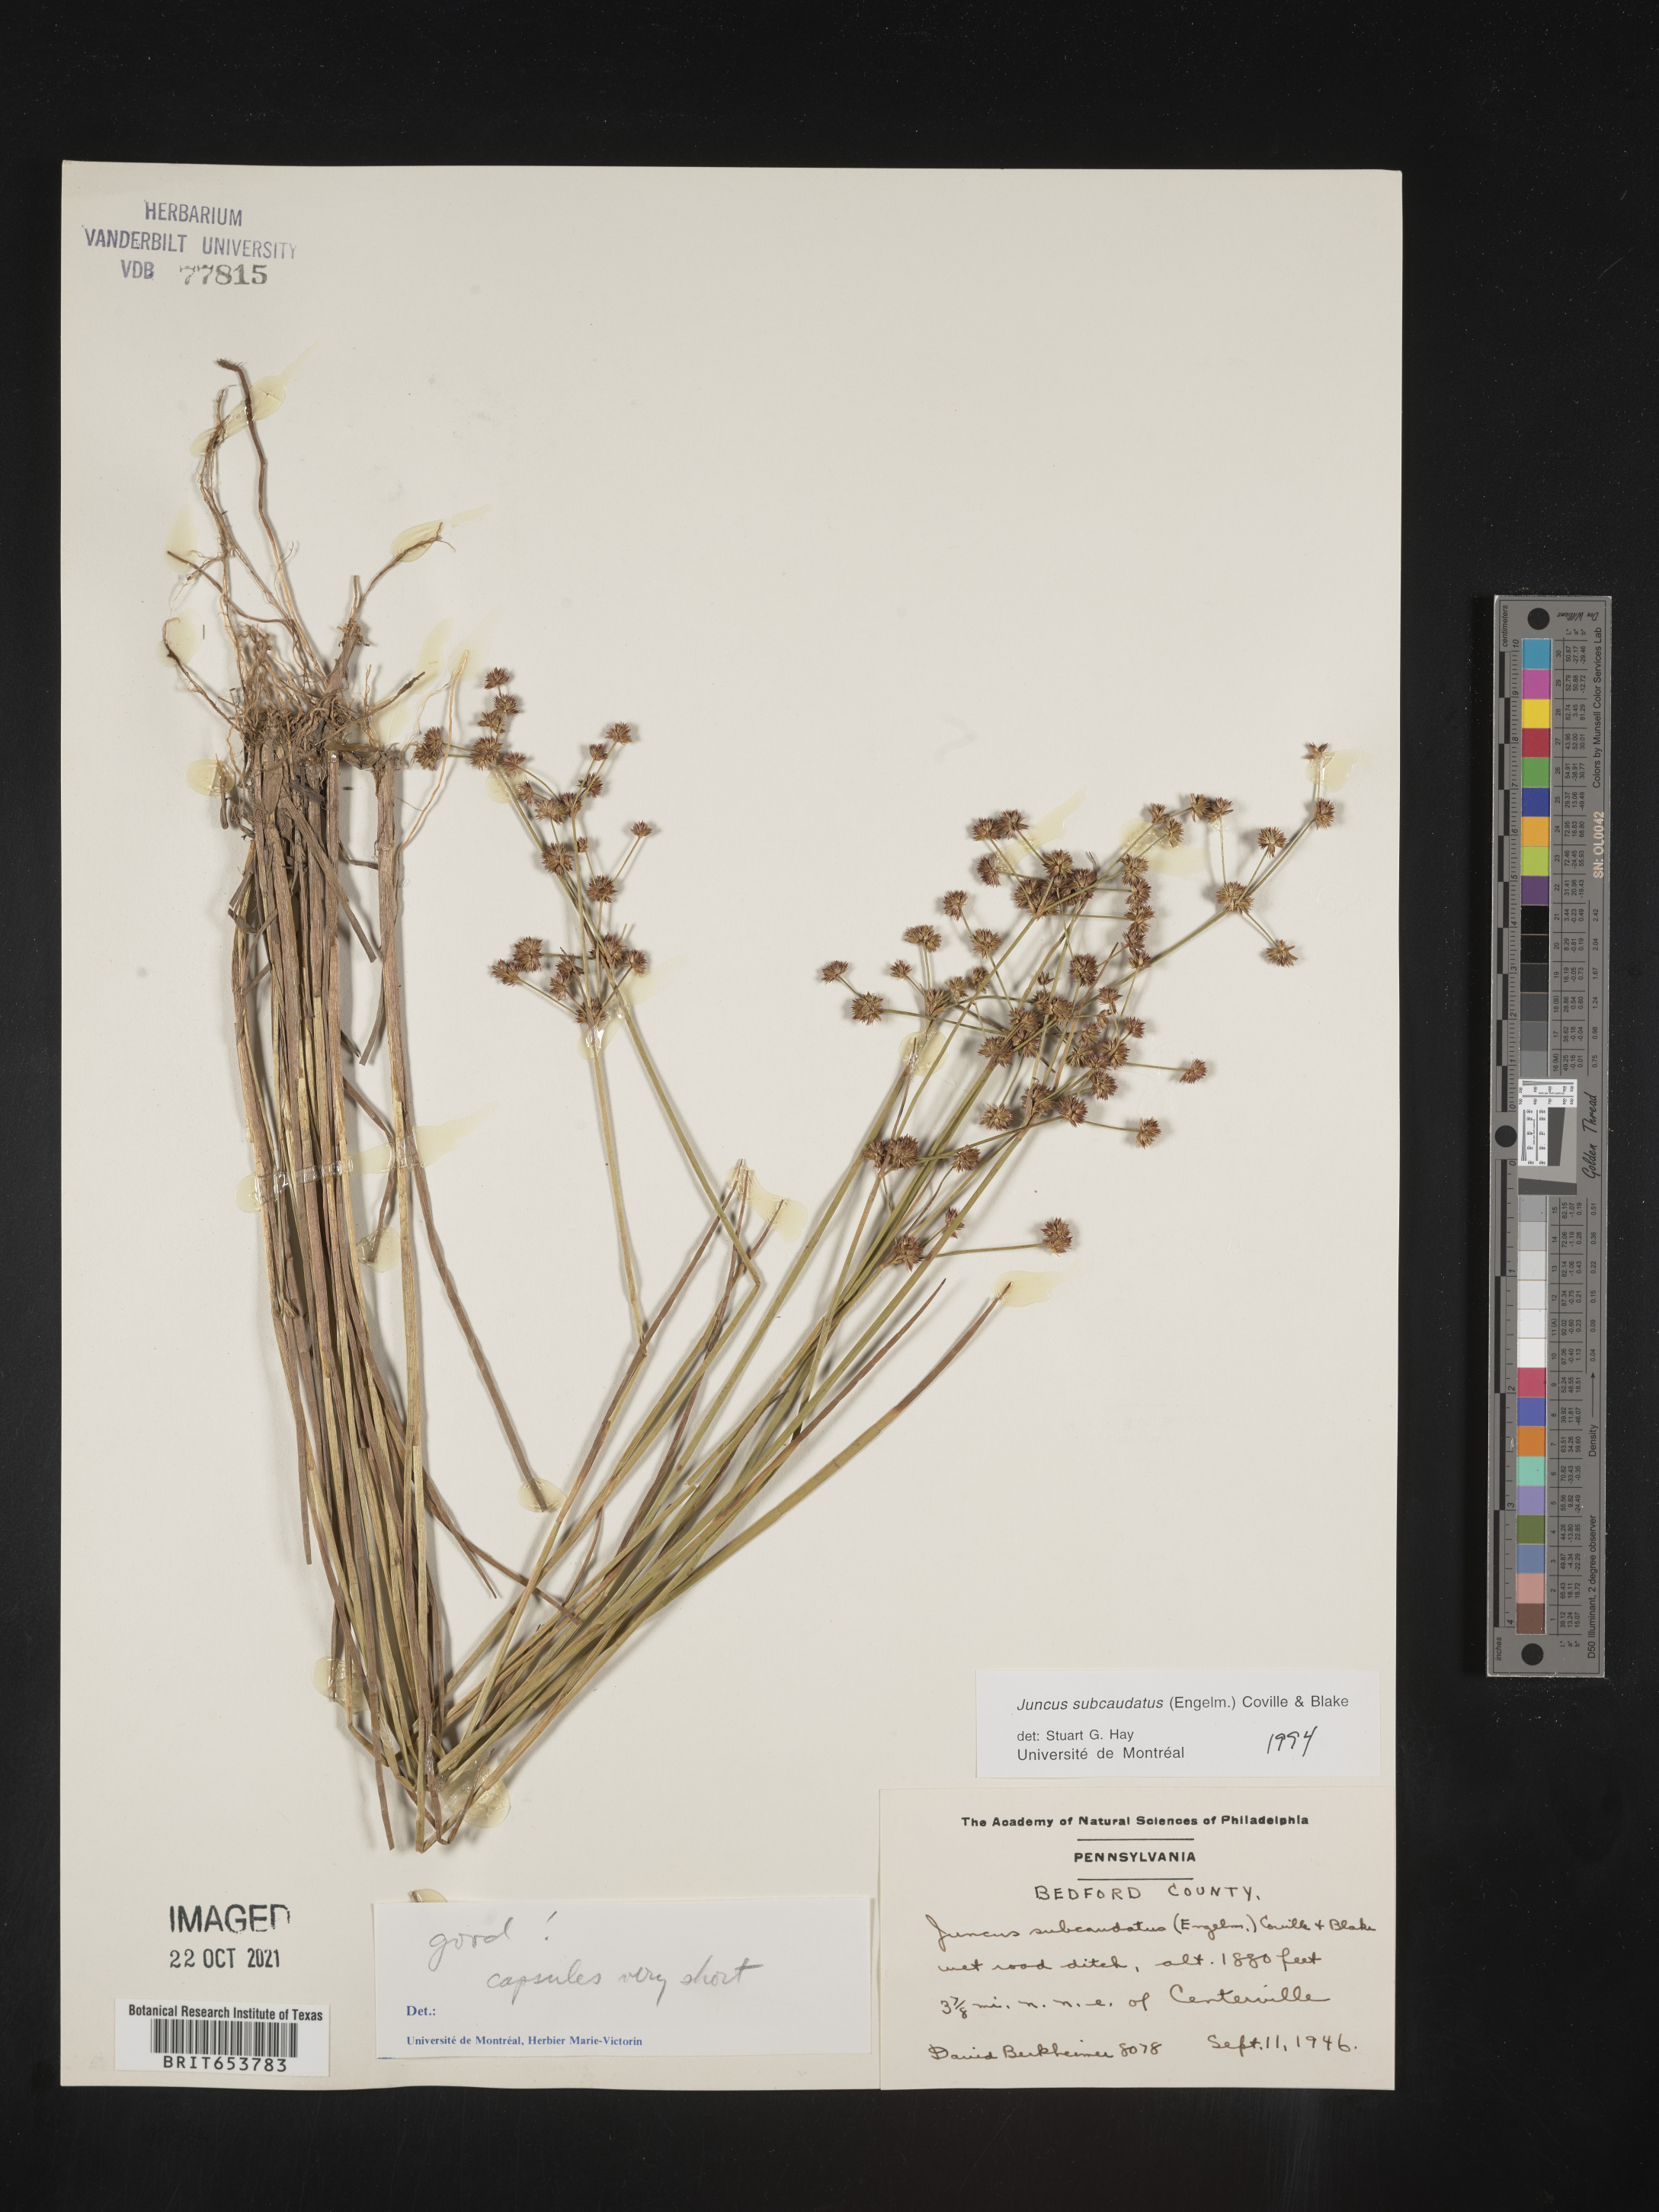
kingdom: Plantae
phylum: Tracheophyta
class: Liliopsida
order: Poales
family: Juncaceae
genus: Juncus
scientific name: Juncus subcaudatus
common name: Engelmann's rush
